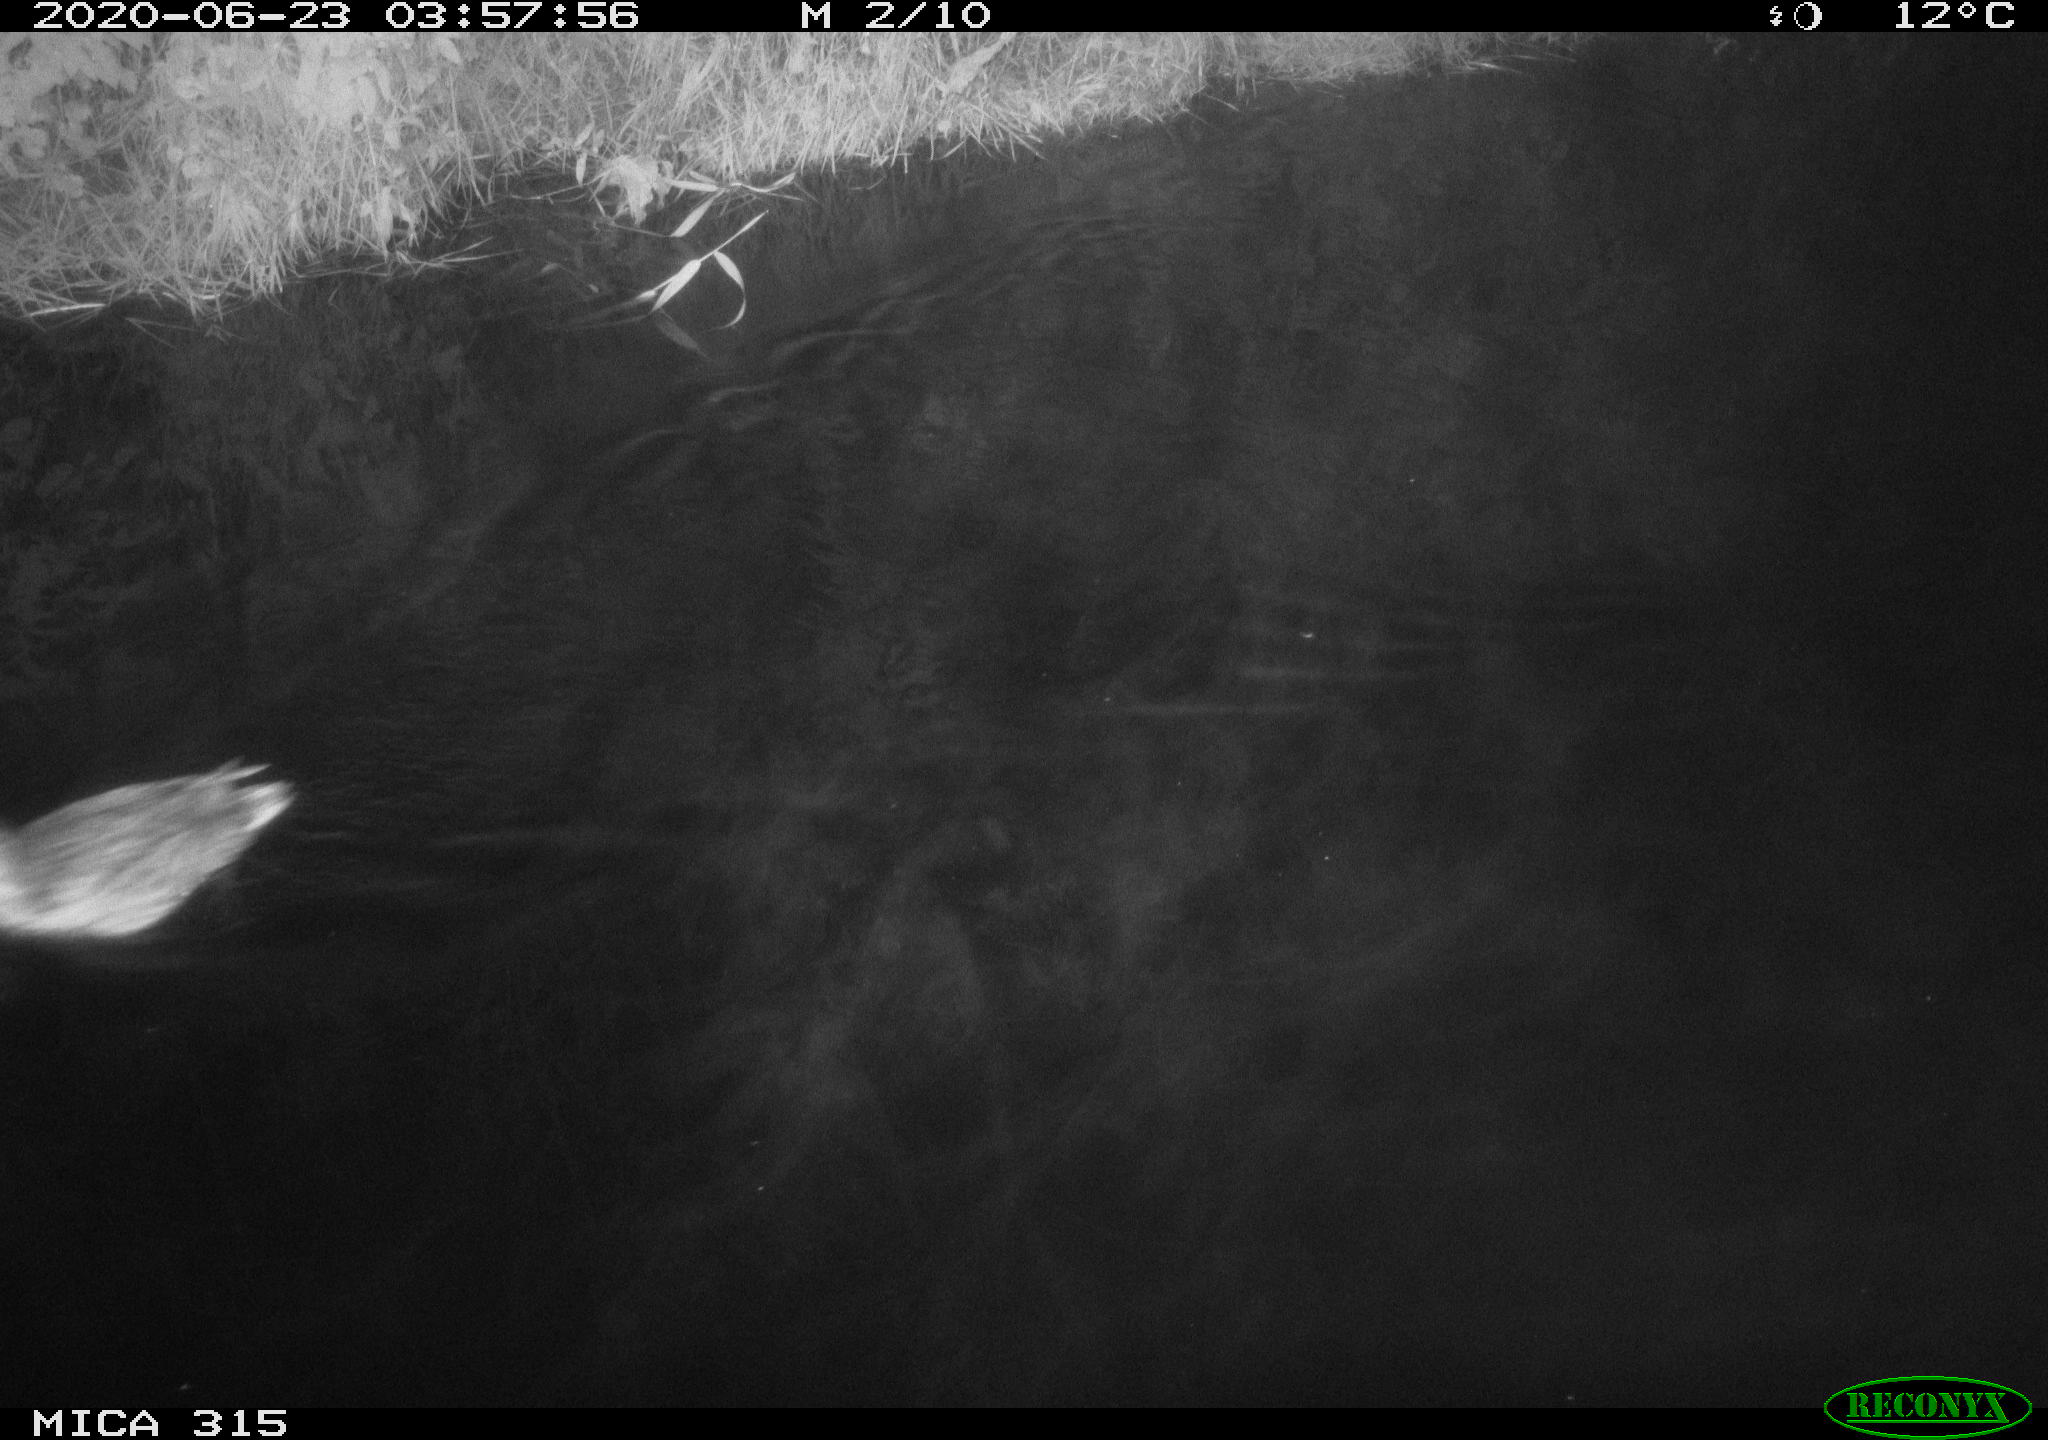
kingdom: Animalia
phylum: Chordata
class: Aves
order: Anseriformes
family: Anatidae
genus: Anas
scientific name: Anas platyrhynchos
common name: Mallard
